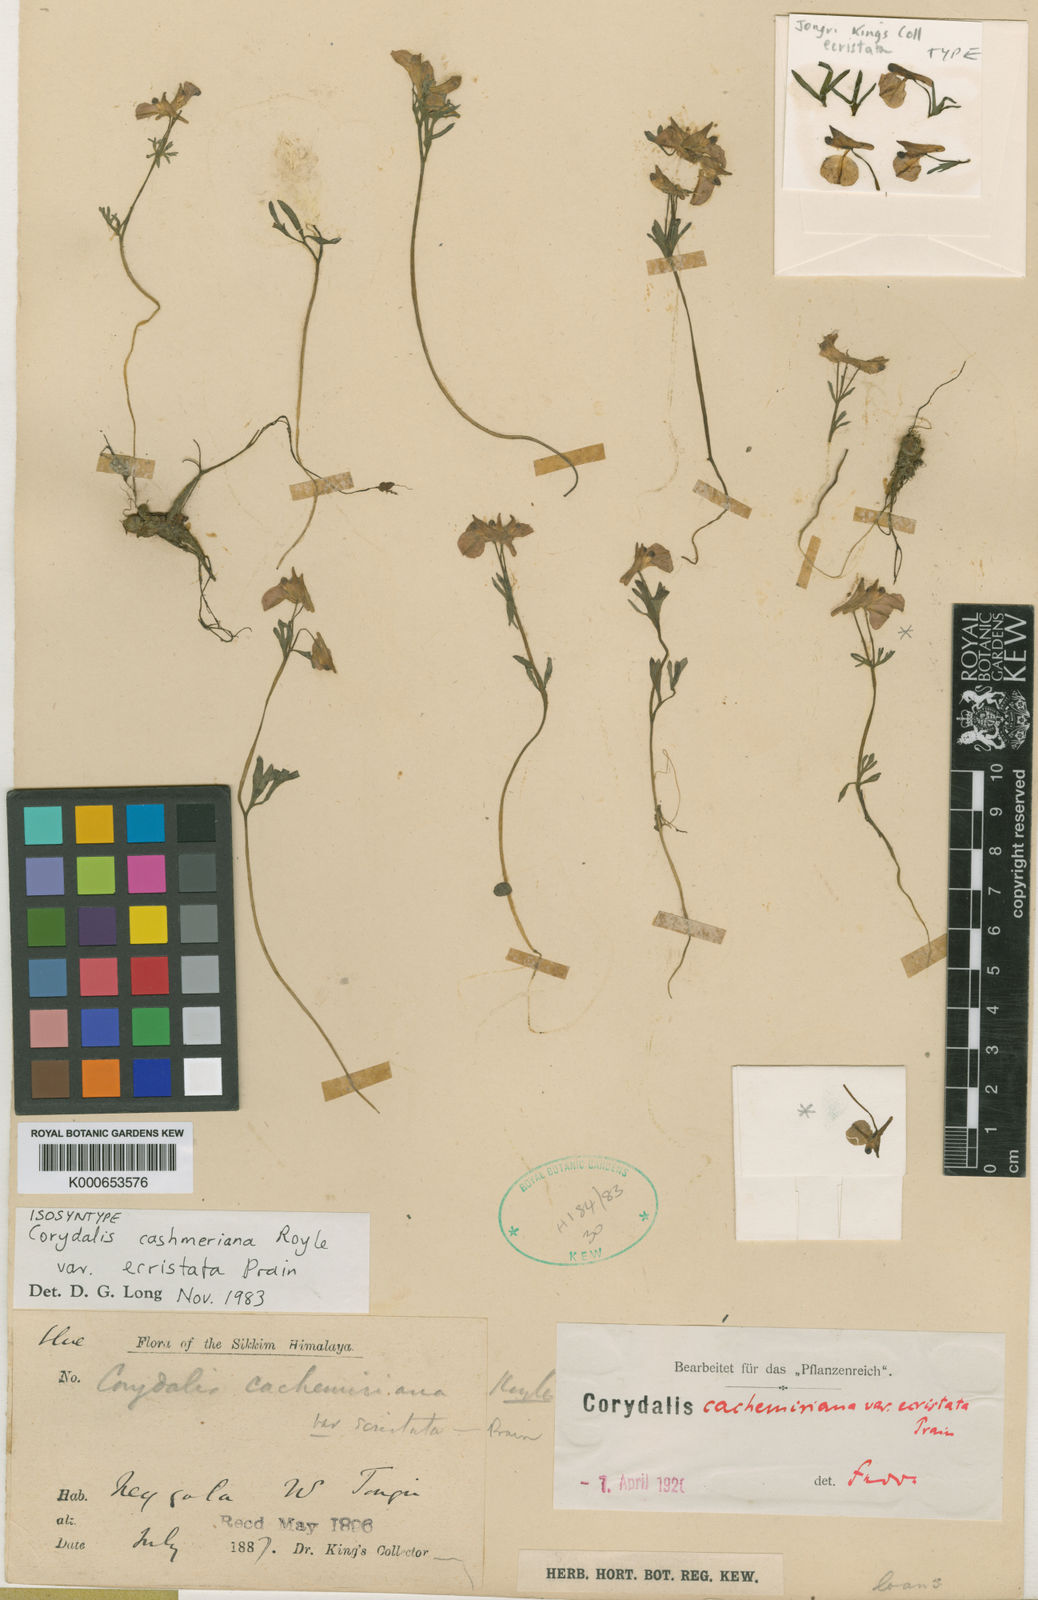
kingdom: Plantae
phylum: Tracheophyta
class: Magnoliopsida
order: Ranunculales
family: Papaveraceae
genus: Corydalis
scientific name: Corydalis cashmeriana
